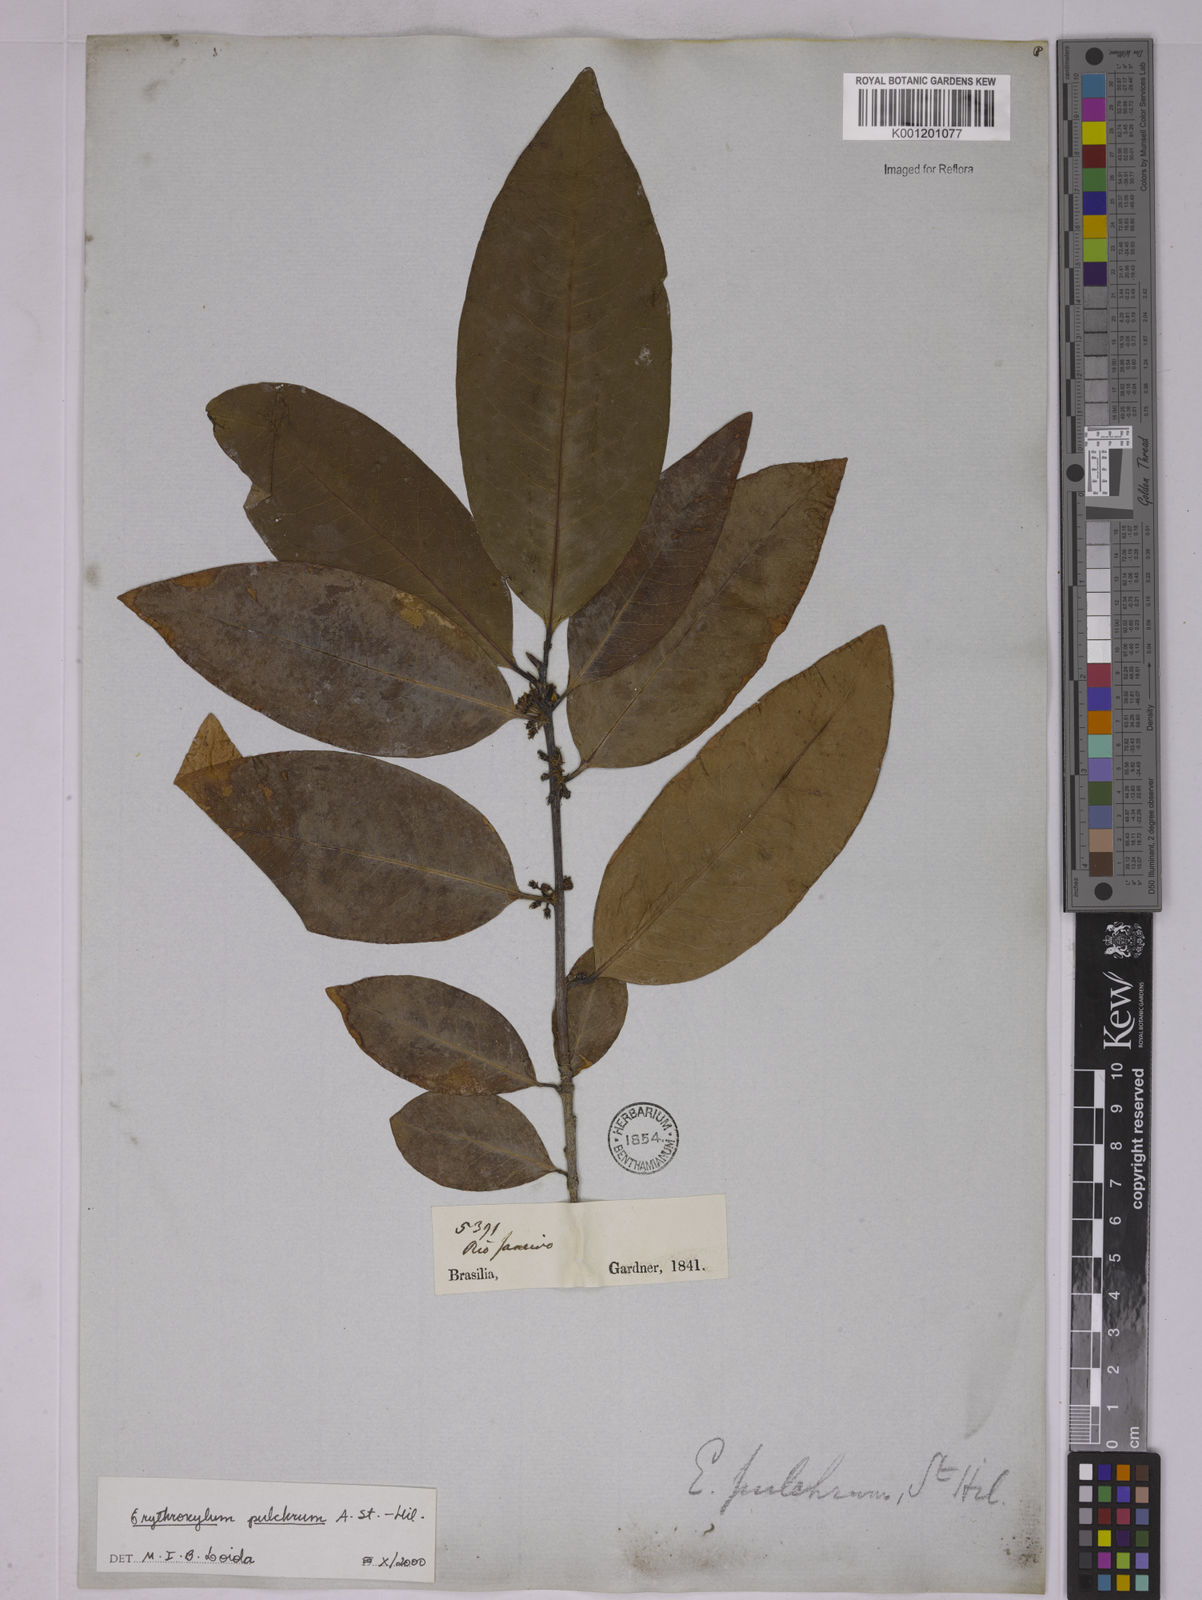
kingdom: Plantae
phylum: Tracheophyta
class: Magnoliopsida
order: Malpighiales
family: Erythroxylaceae
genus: Erythroxylum
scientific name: Erythroxylum pulchrum
